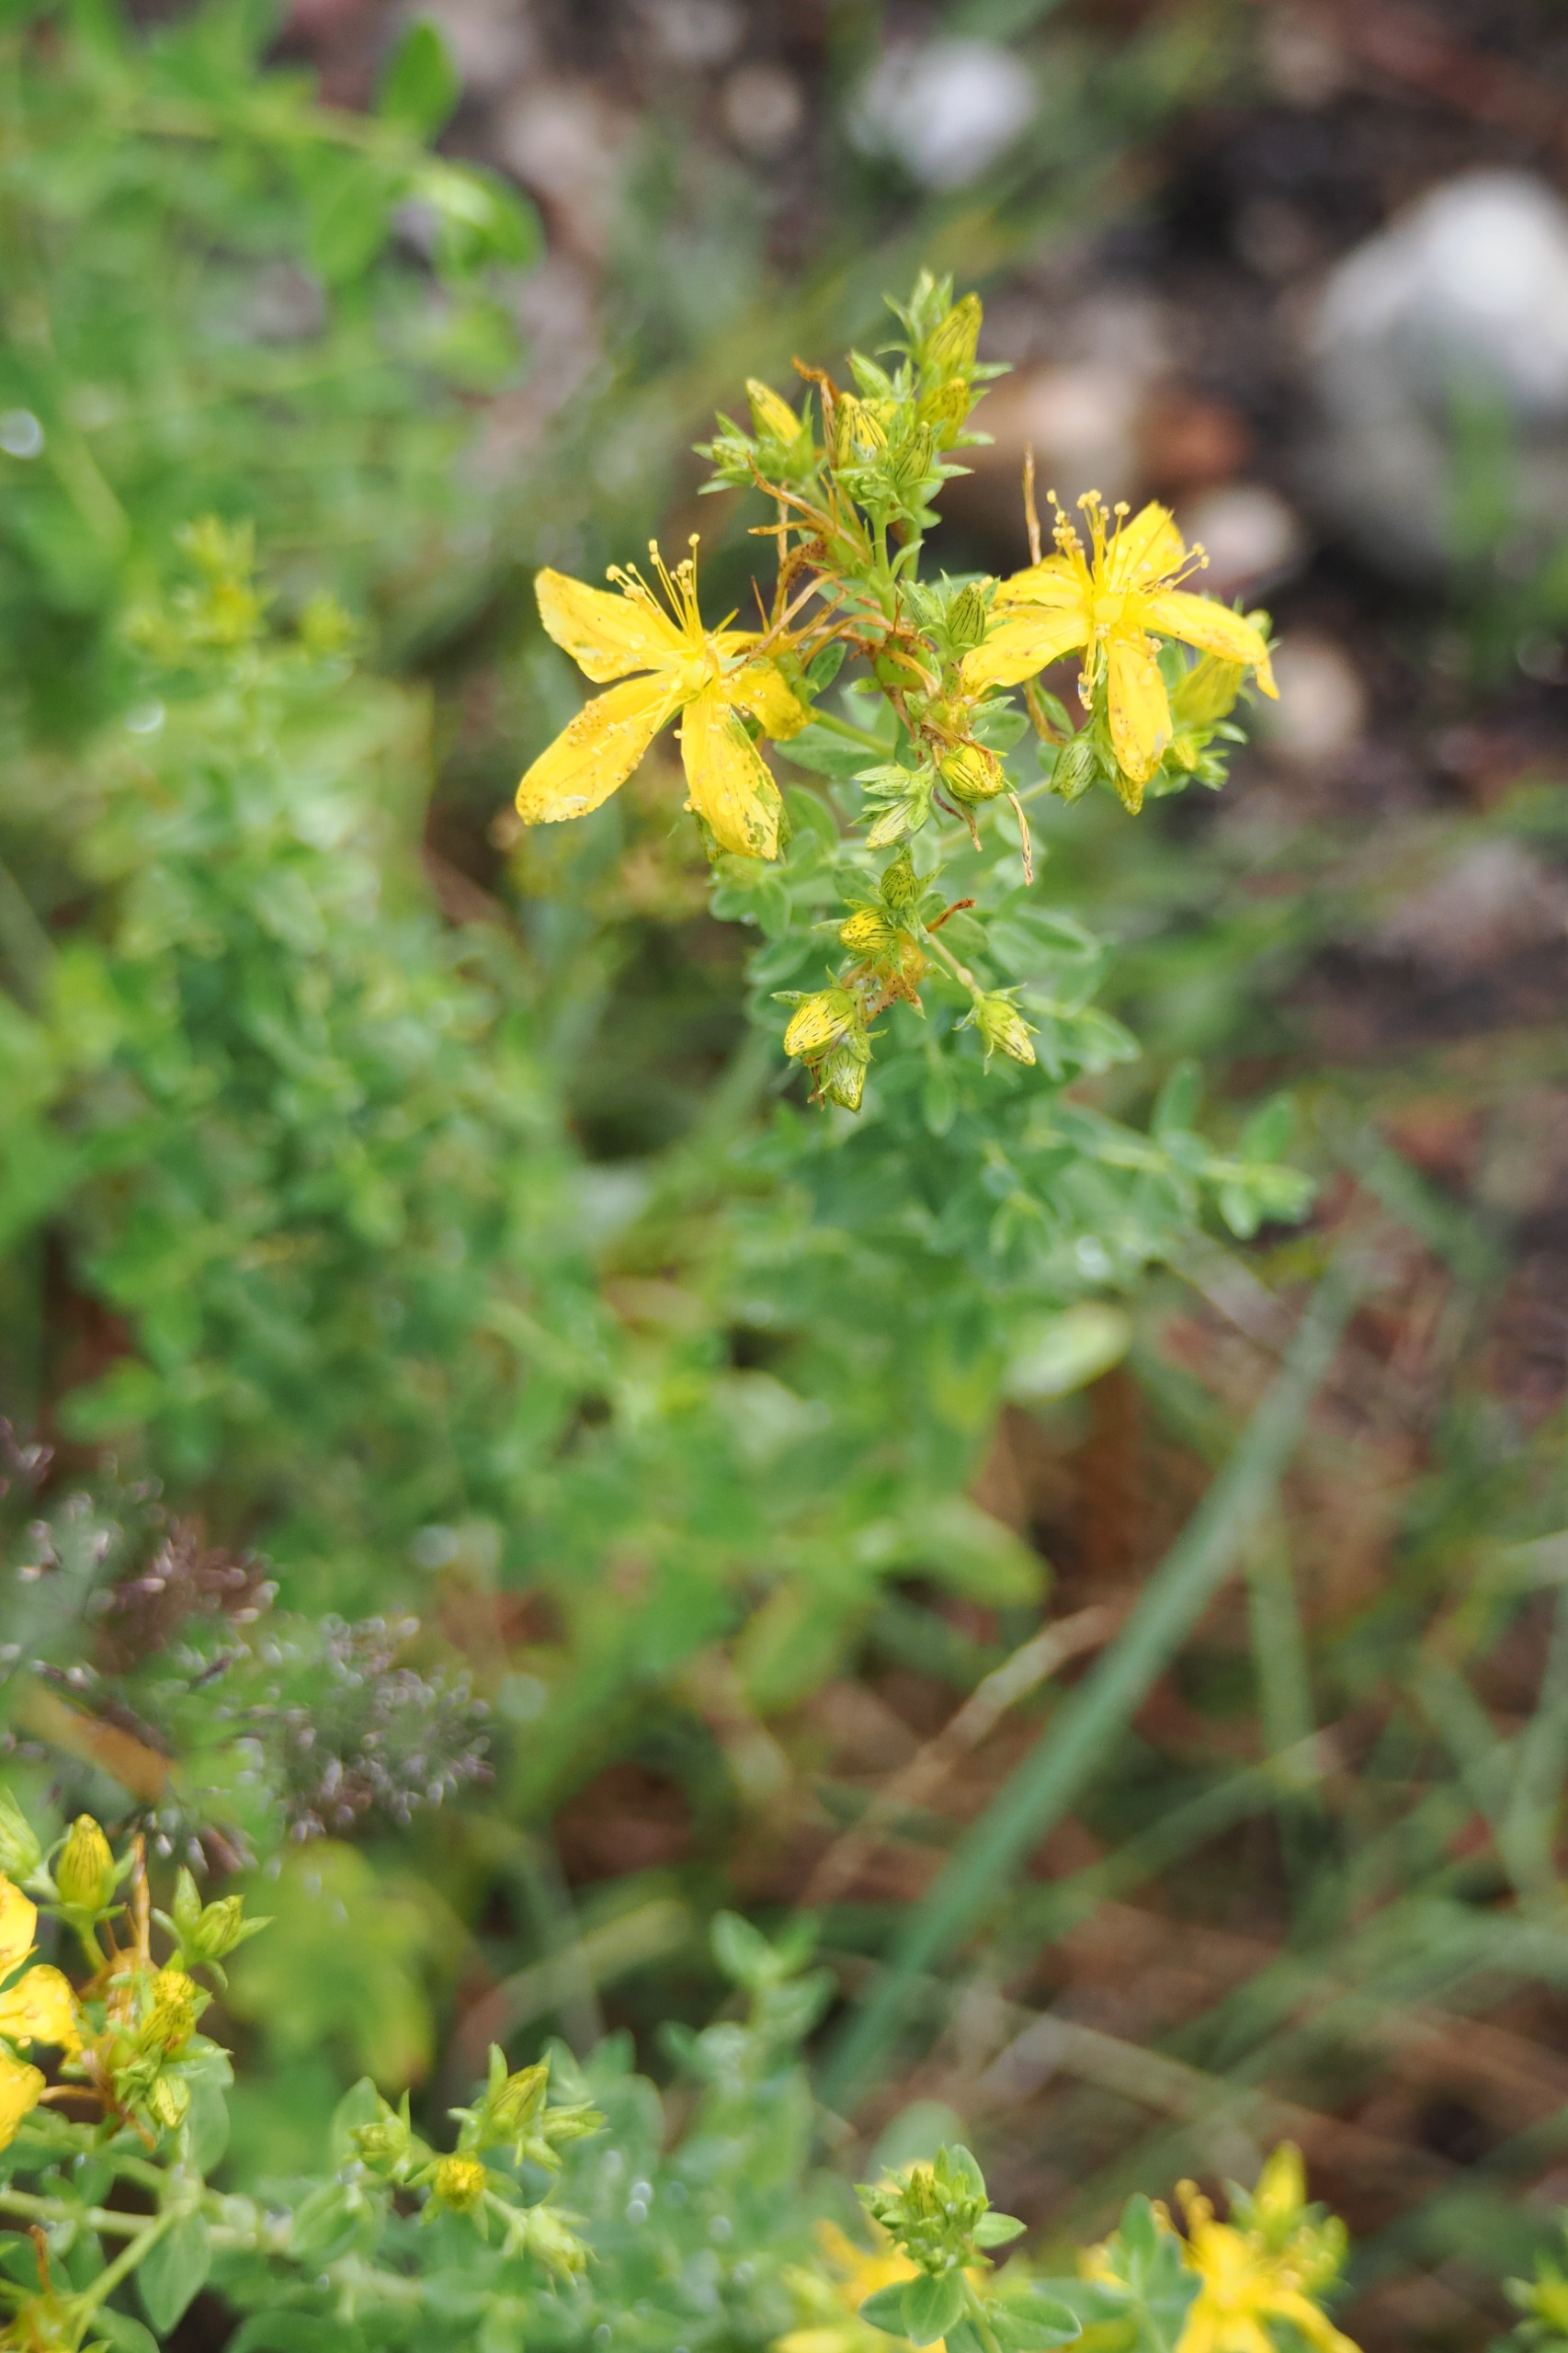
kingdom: Plantae
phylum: Tracheophyta
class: Magnoliopsida
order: Malpighiales
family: Hypericaceae
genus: Hypericum
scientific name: Hypericum perforatum
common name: Prikbladet perikon
